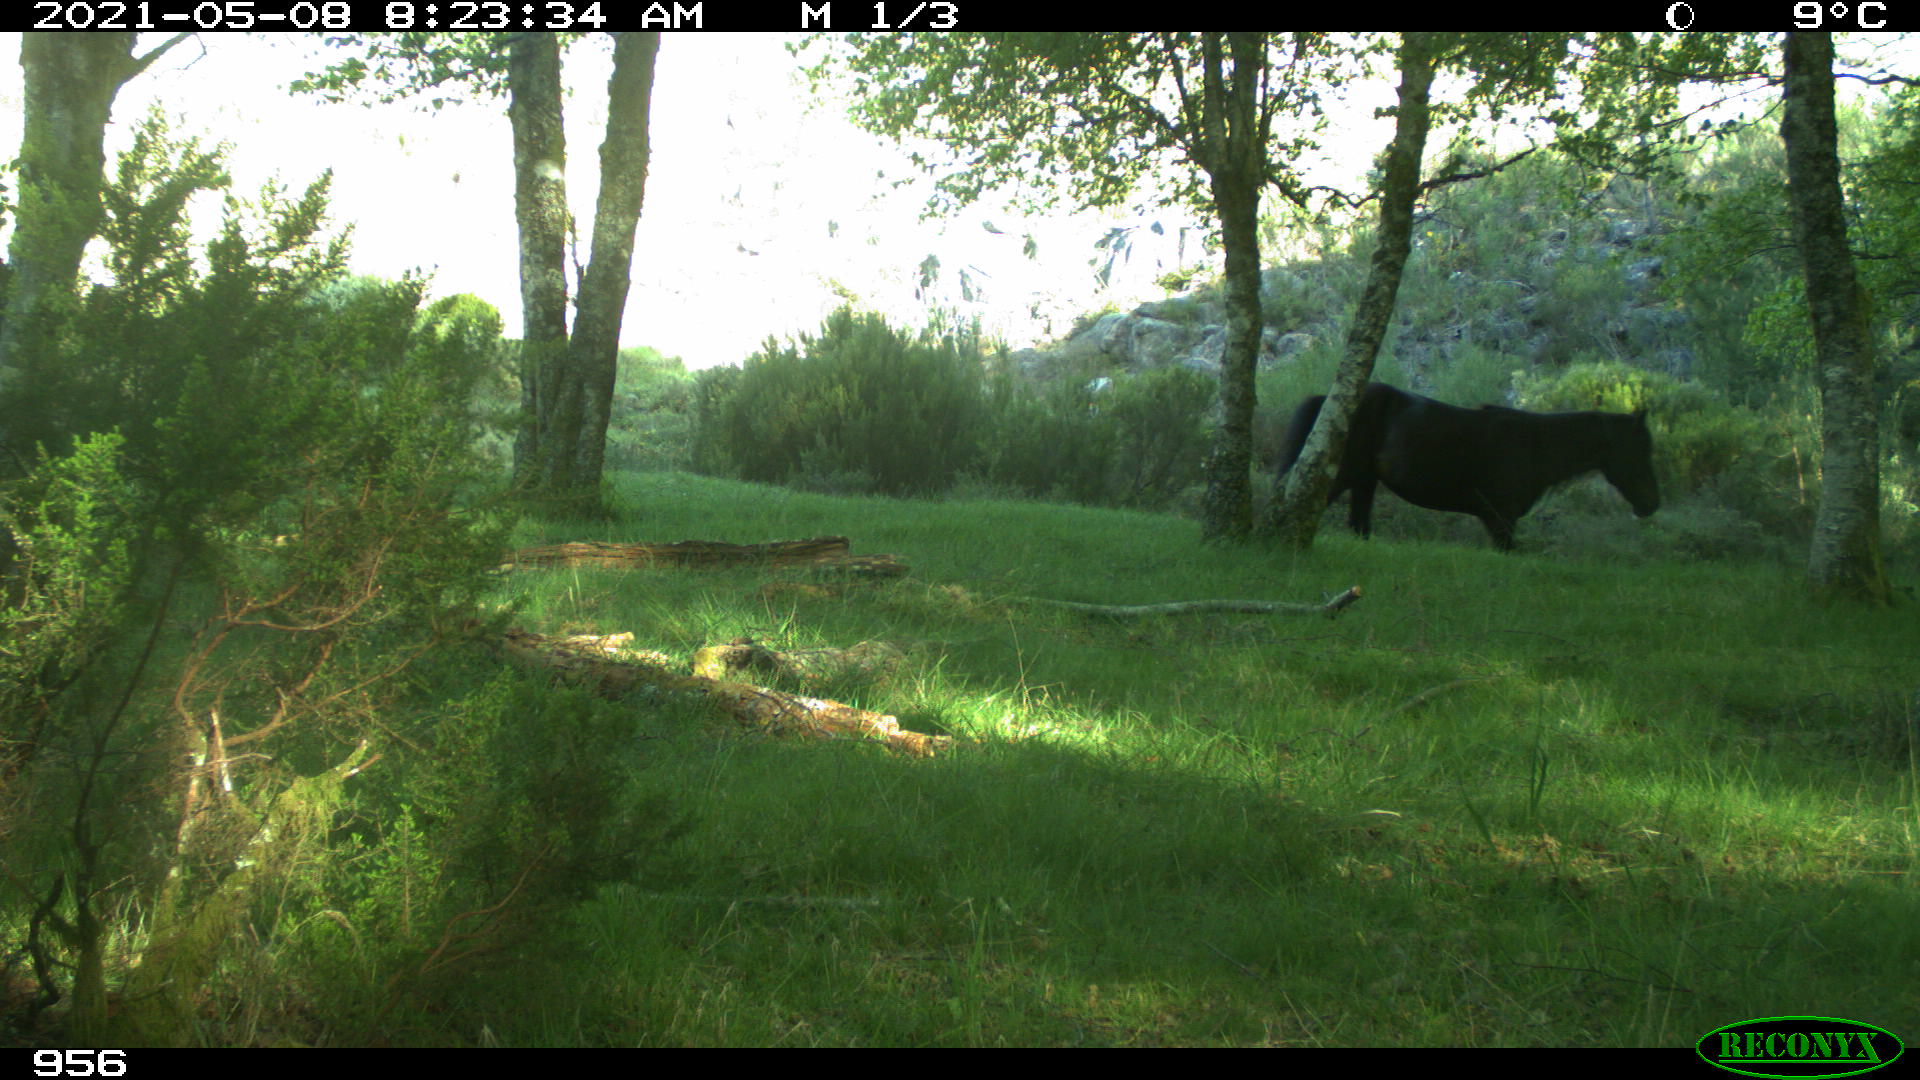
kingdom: Animalia
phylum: Chordata
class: Mammalia
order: Perissodactyla
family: Equidae
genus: Equus
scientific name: Equus caballus
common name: Horse
